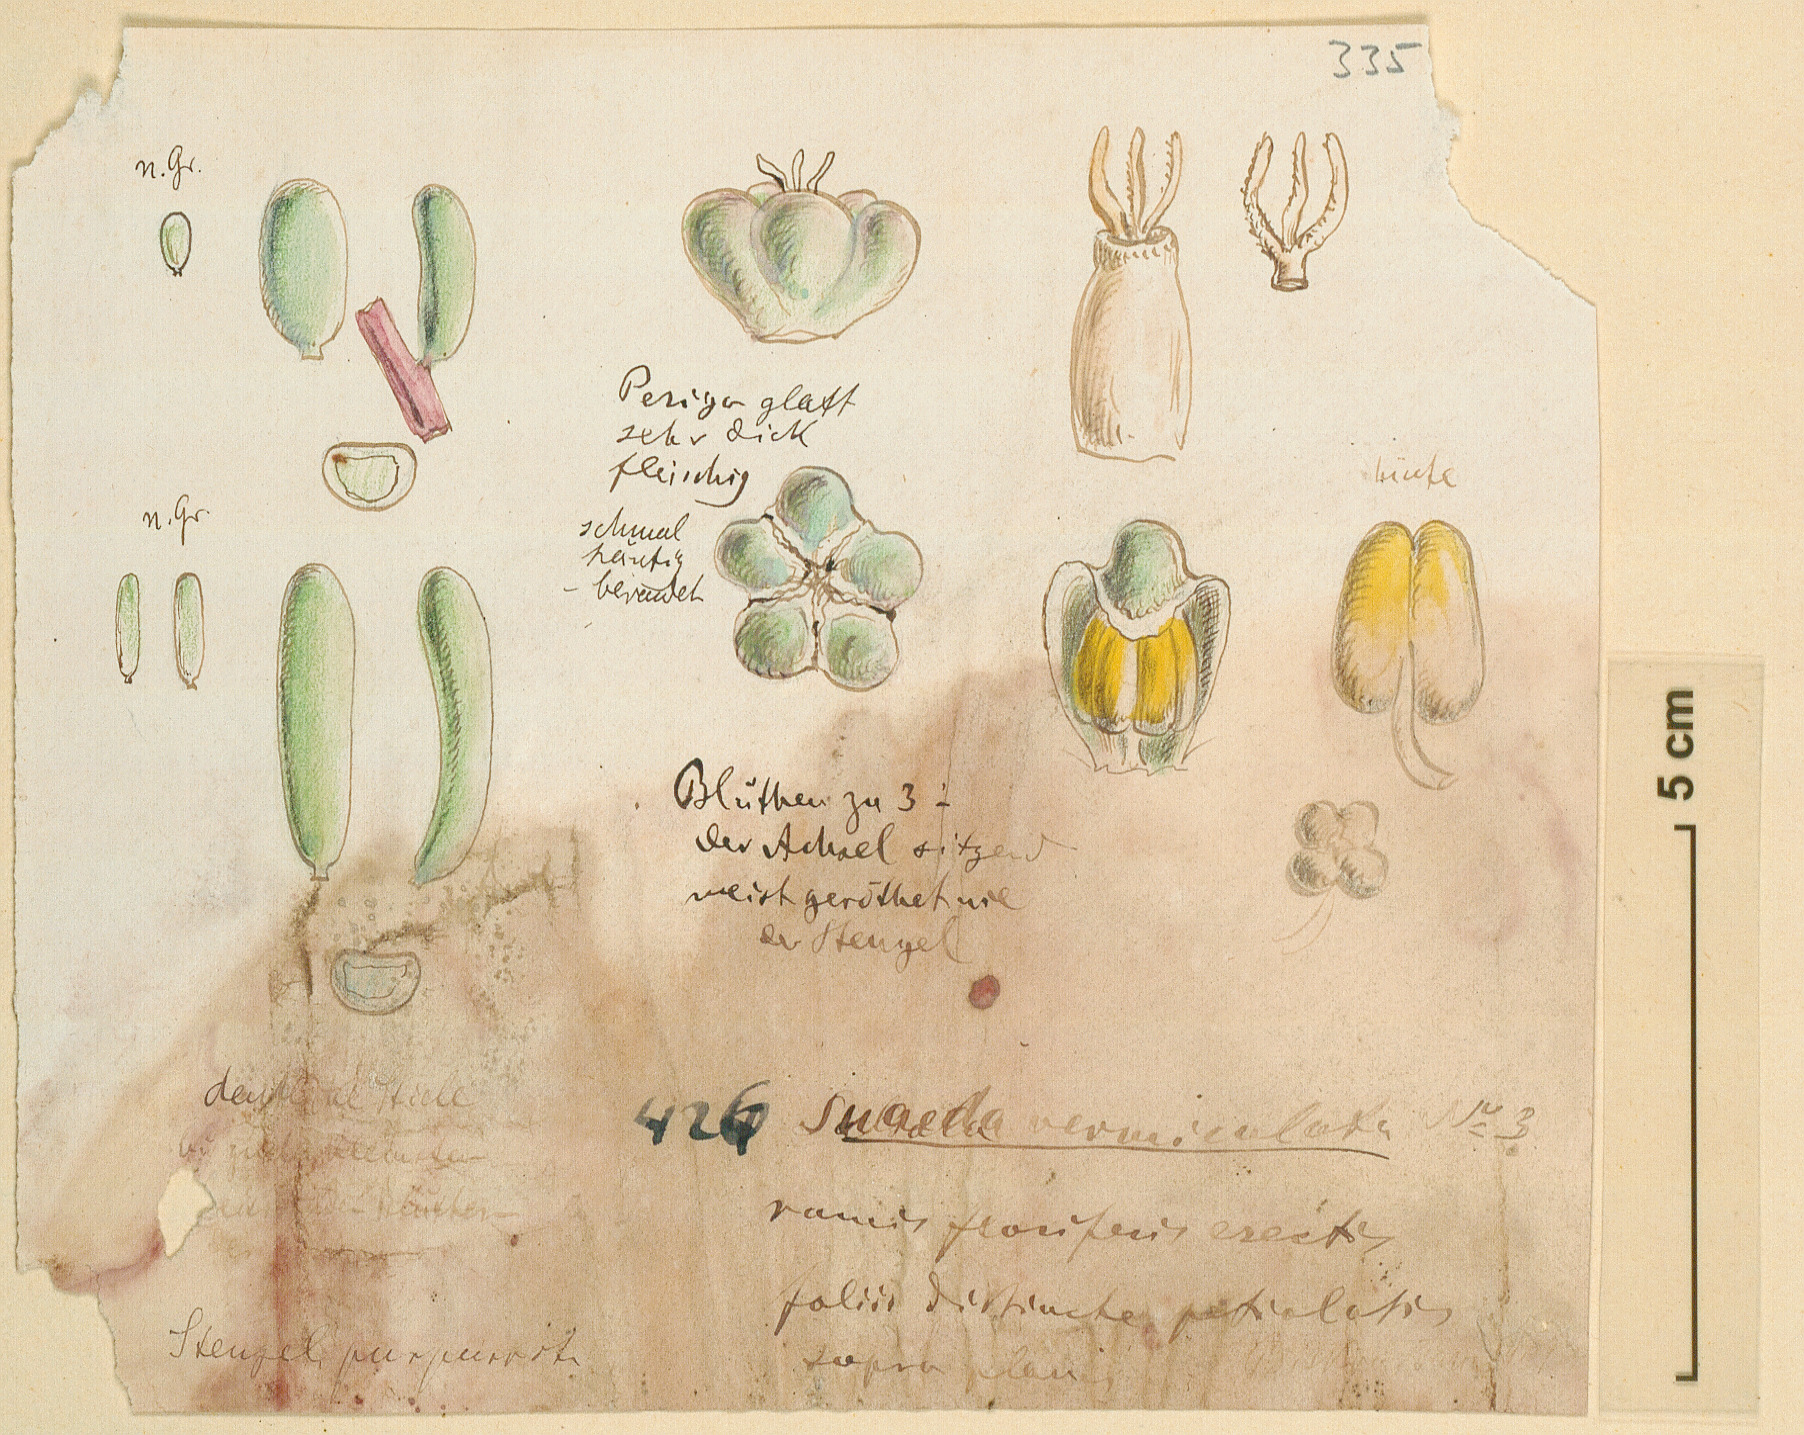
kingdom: Plantae
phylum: Tracheophyta
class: Magnoliopsida
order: Caryophyllales
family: Amaranthaceae
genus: Suaeda
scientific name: Suaeda vermiculata
